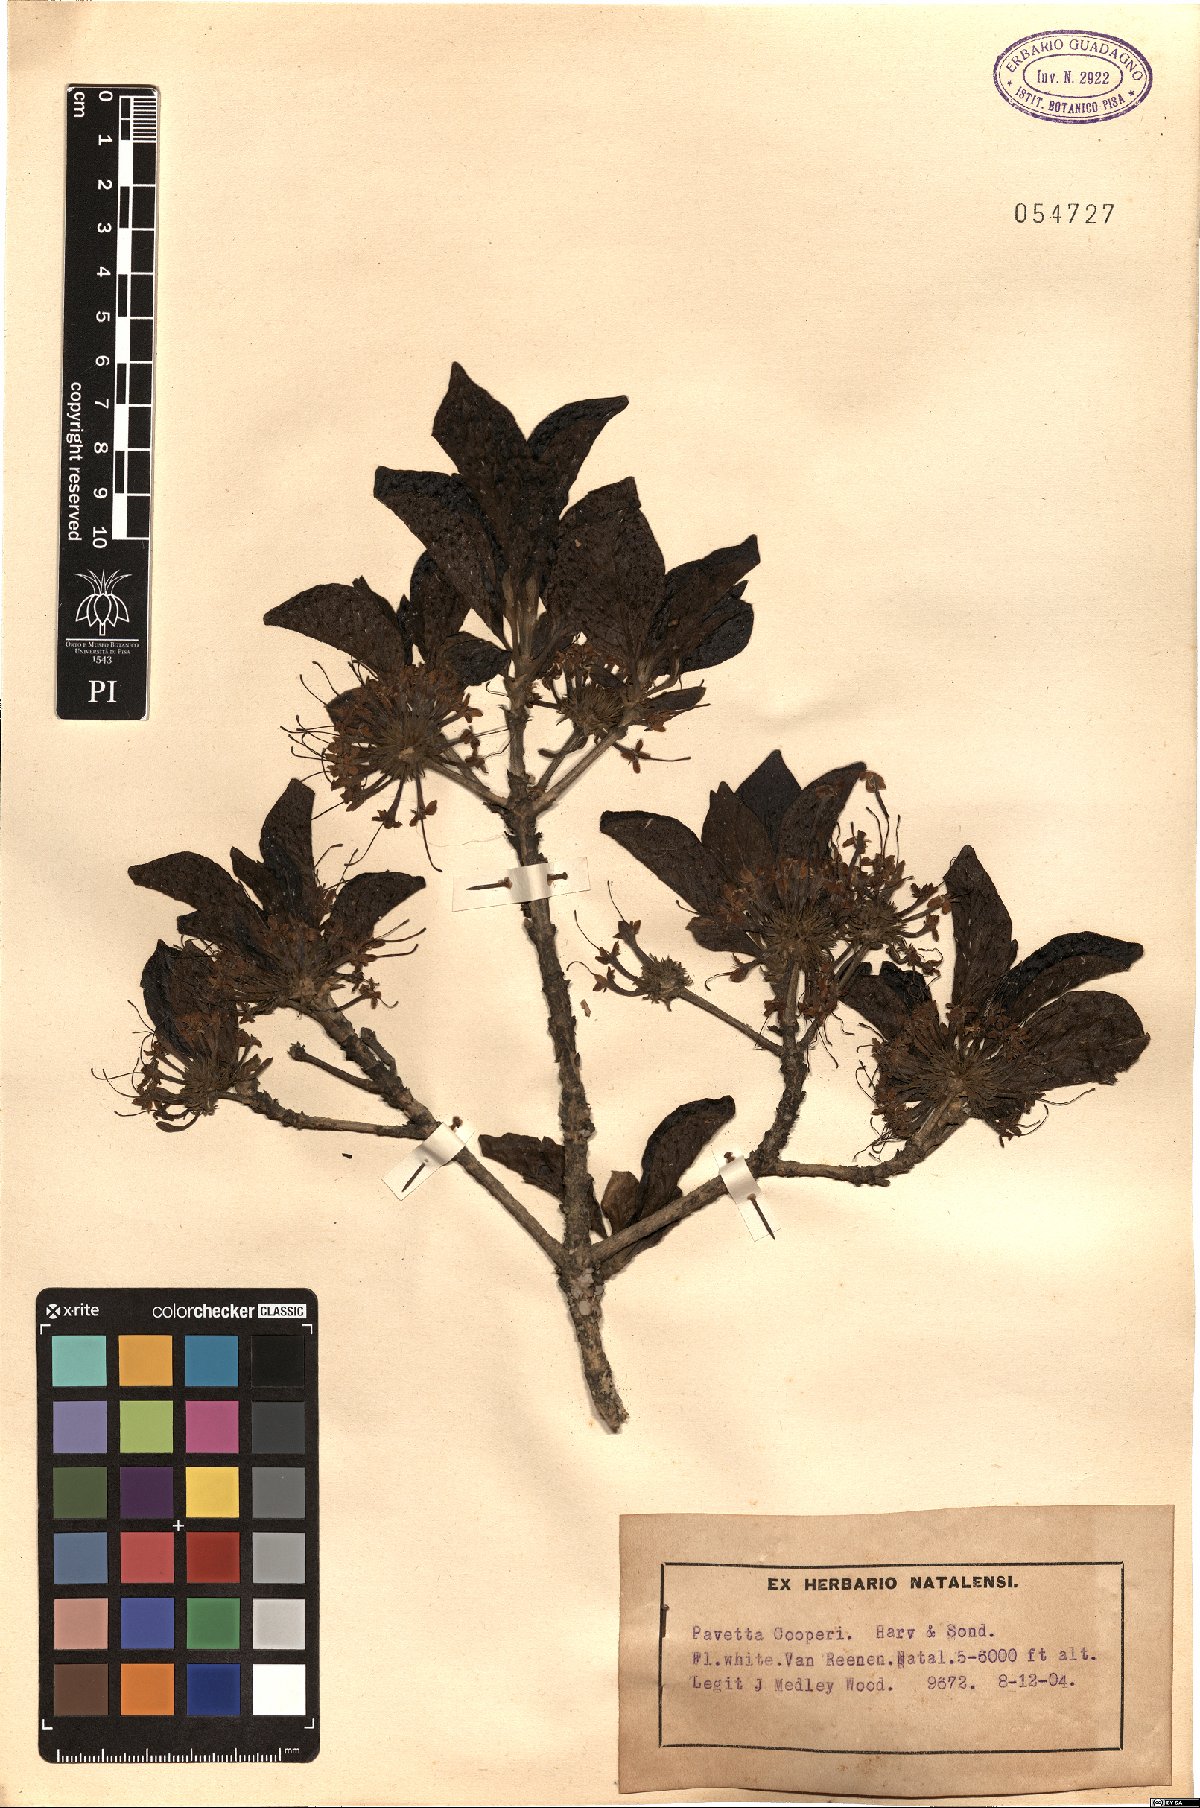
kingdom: Plantae
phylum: Tracheophyta
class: Magnoliopsida
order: Gentianales
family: Rubiaceae
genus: Pavetta
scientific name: Pavetta cooperi
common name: Pompom brides-bush
